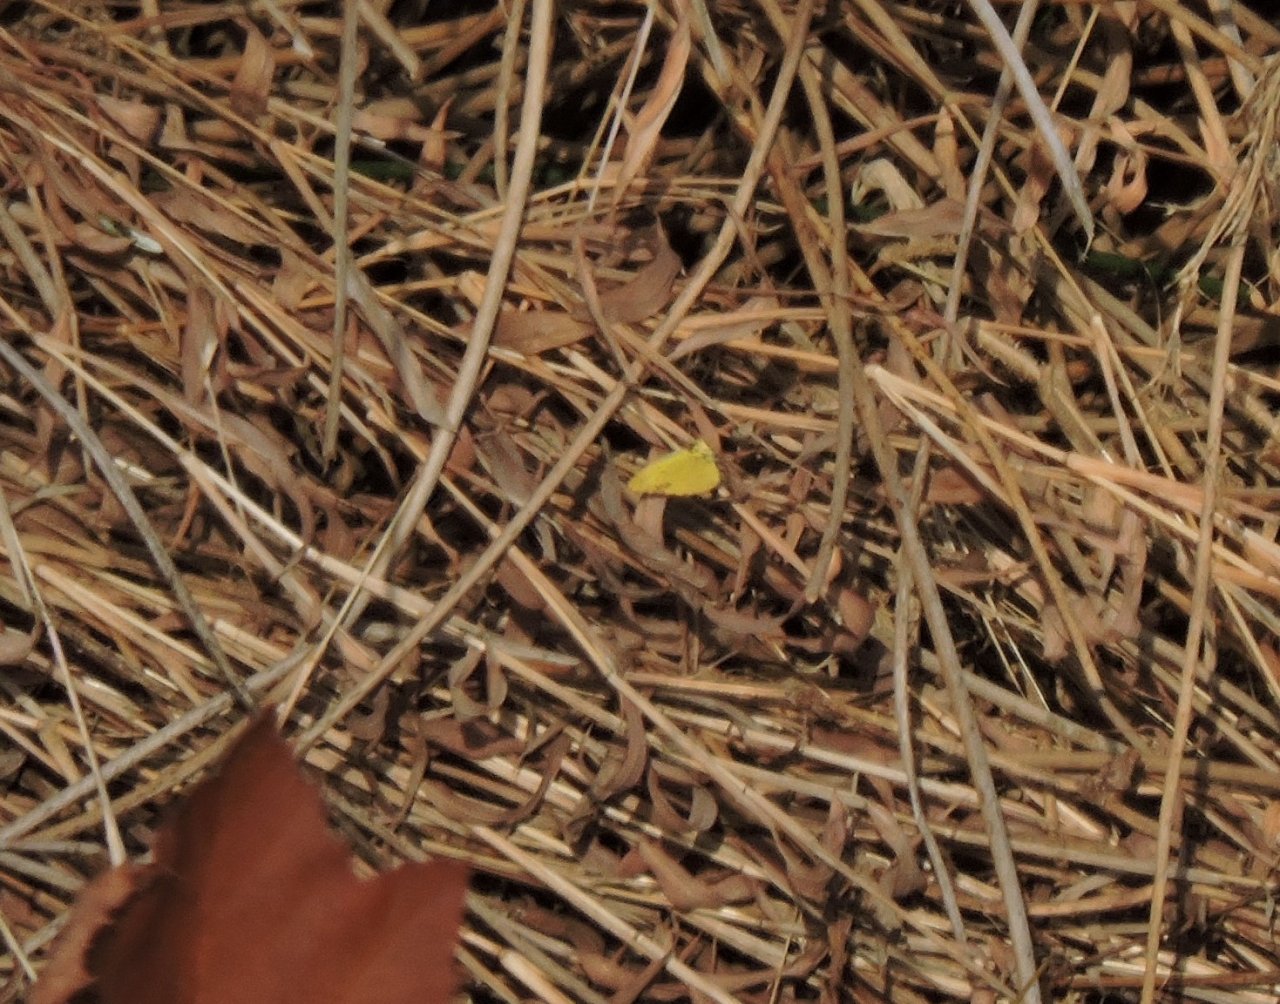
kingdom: Animalia
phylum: Arthropoda
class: Insecta
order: Lepidoptera
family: Pieridae
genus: Pyrisitia
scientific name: Pyrisitia lisa
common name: Little Yellow
